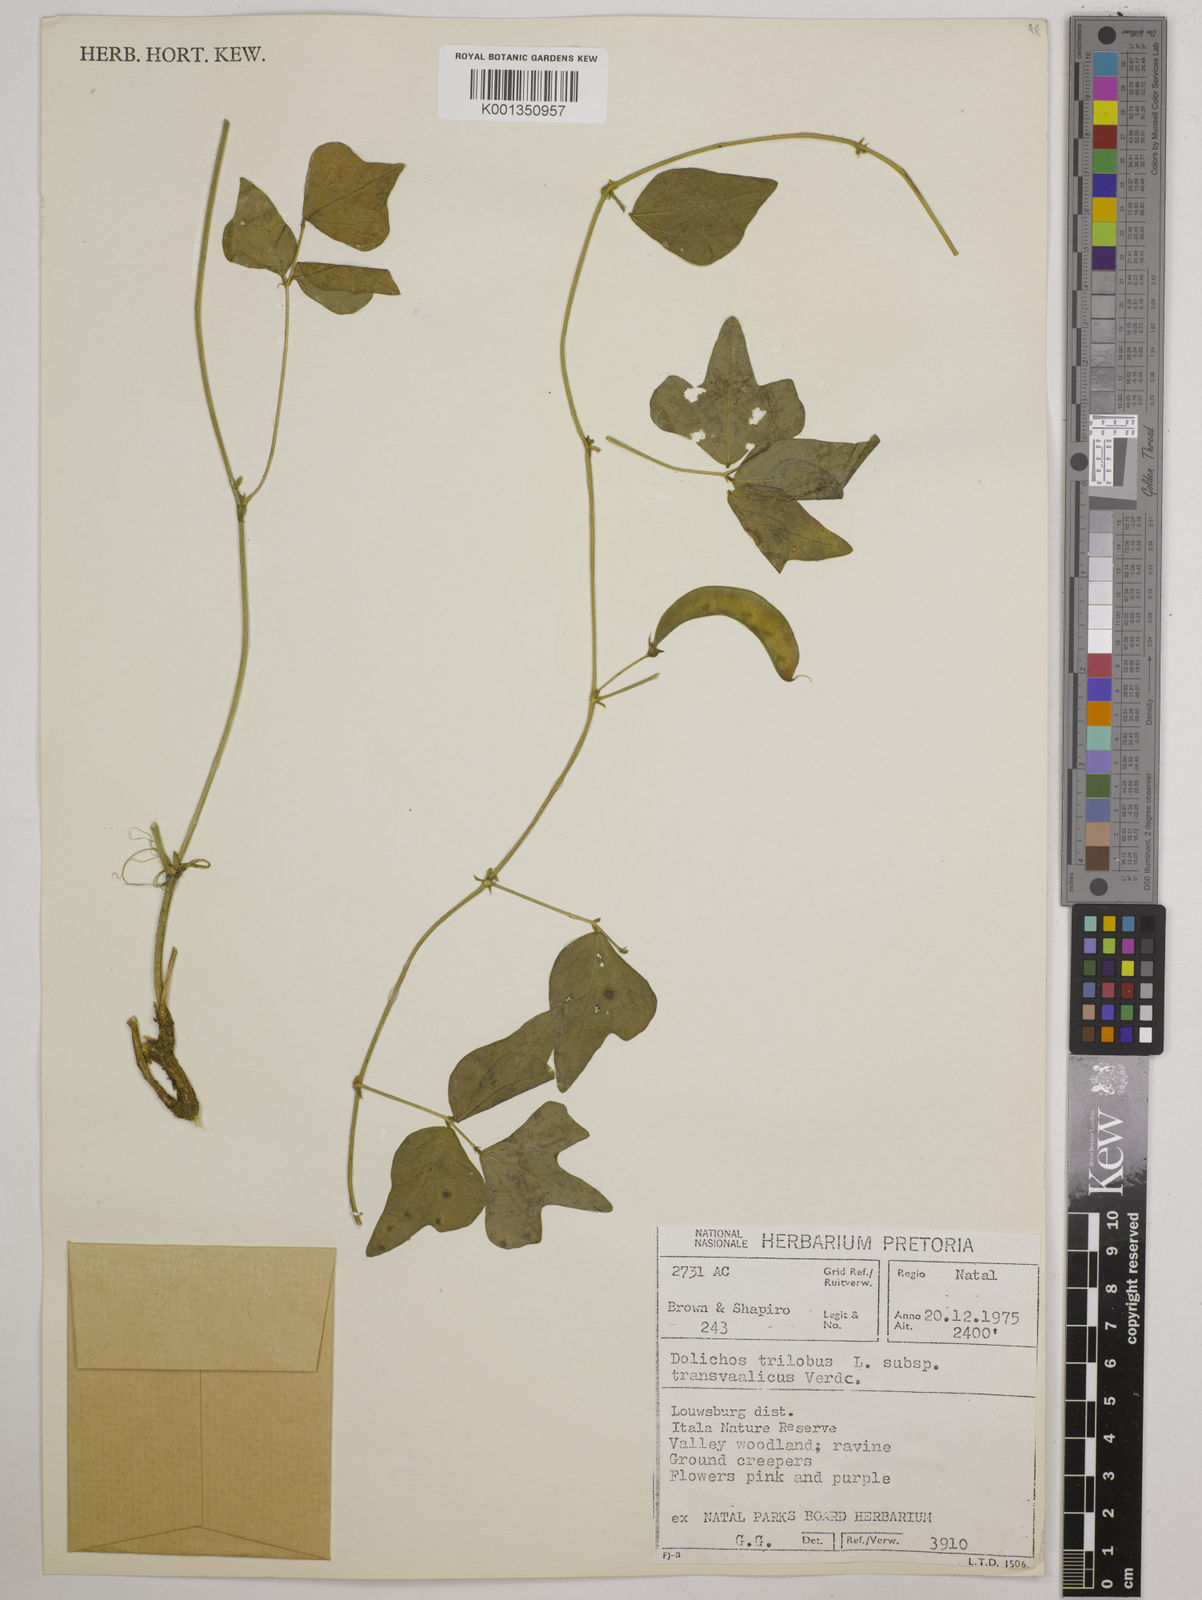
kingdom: Plantae
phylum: Tracheophyta
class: Magnoliopsida
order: Fabales
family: Fabaceae
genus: Dolichos
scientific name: Dolichos
